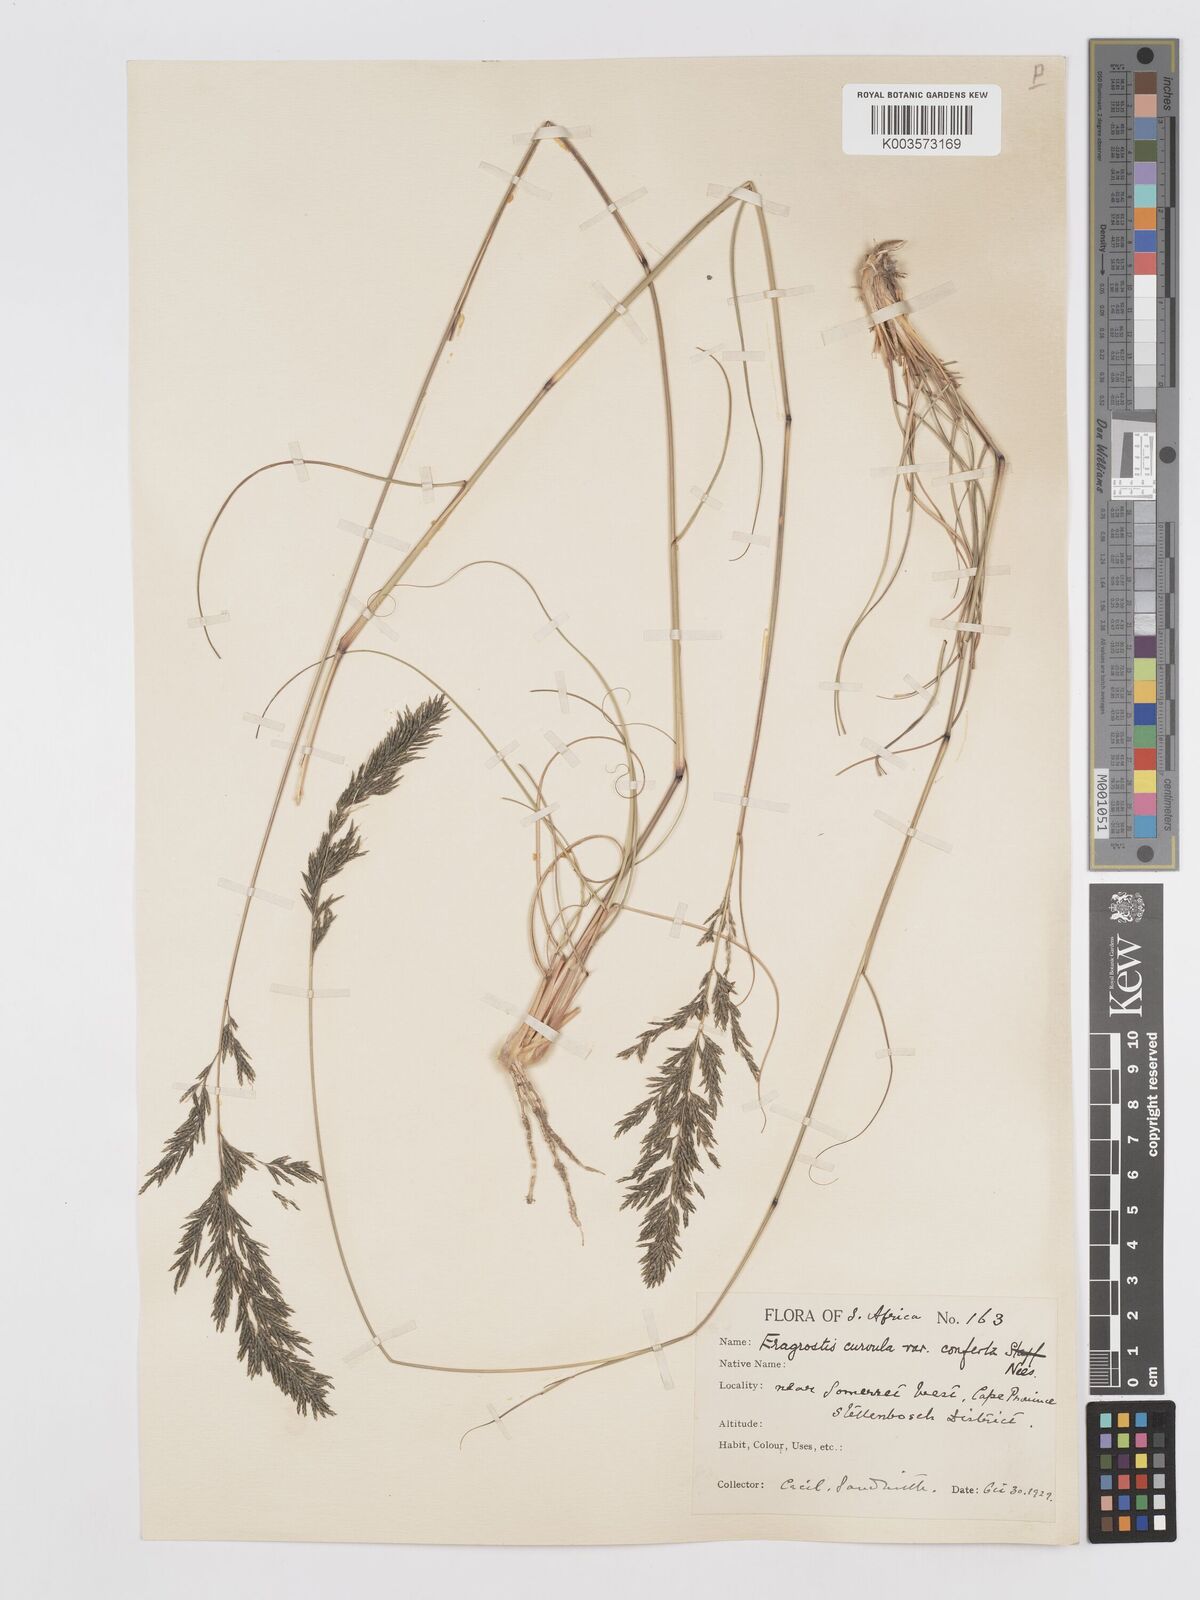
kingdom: Plantae
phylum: Tracheophyta
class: Liliopsida
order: Poales
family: Poaceae
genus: Eragrostis
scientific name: Eragrostis curvula
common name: African love-grass
